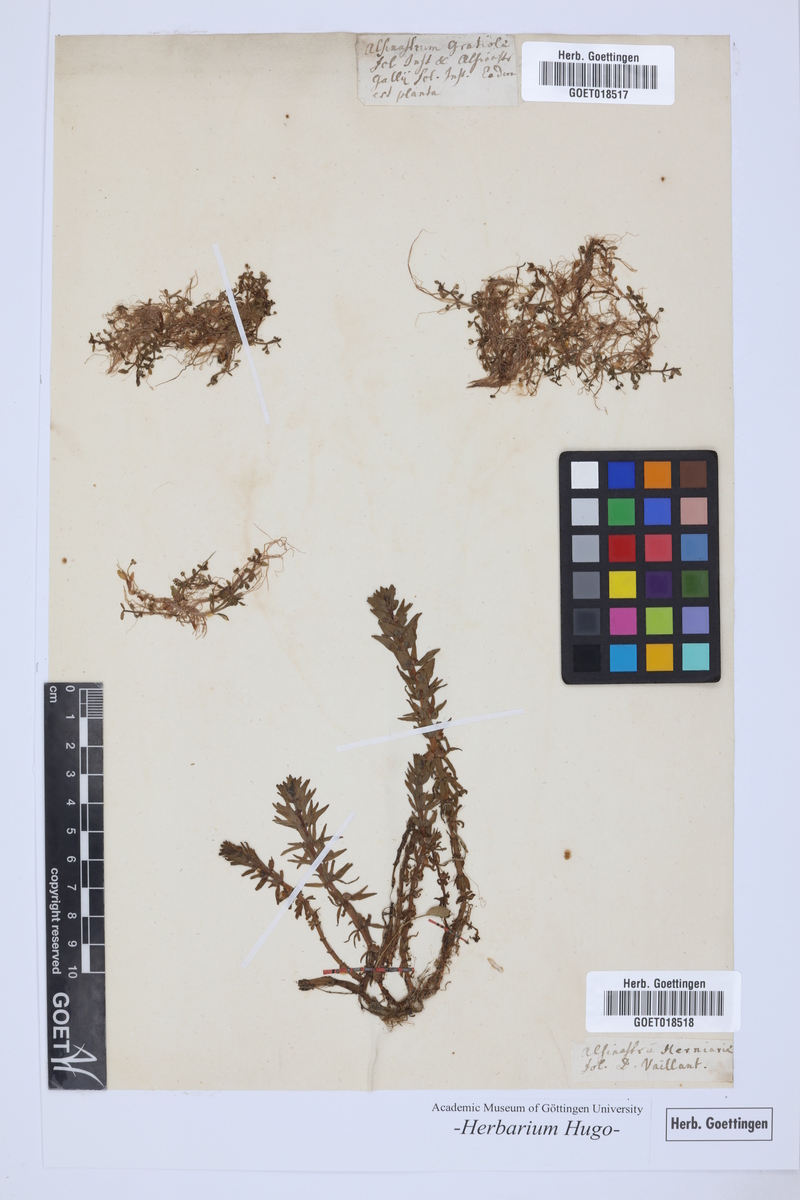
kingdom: Plantae
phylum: Tracheophyta
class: Magnoliopsida
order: Malpighiales
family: Elatinaceae
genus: Elatine
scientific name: Elatine alsinastrum
